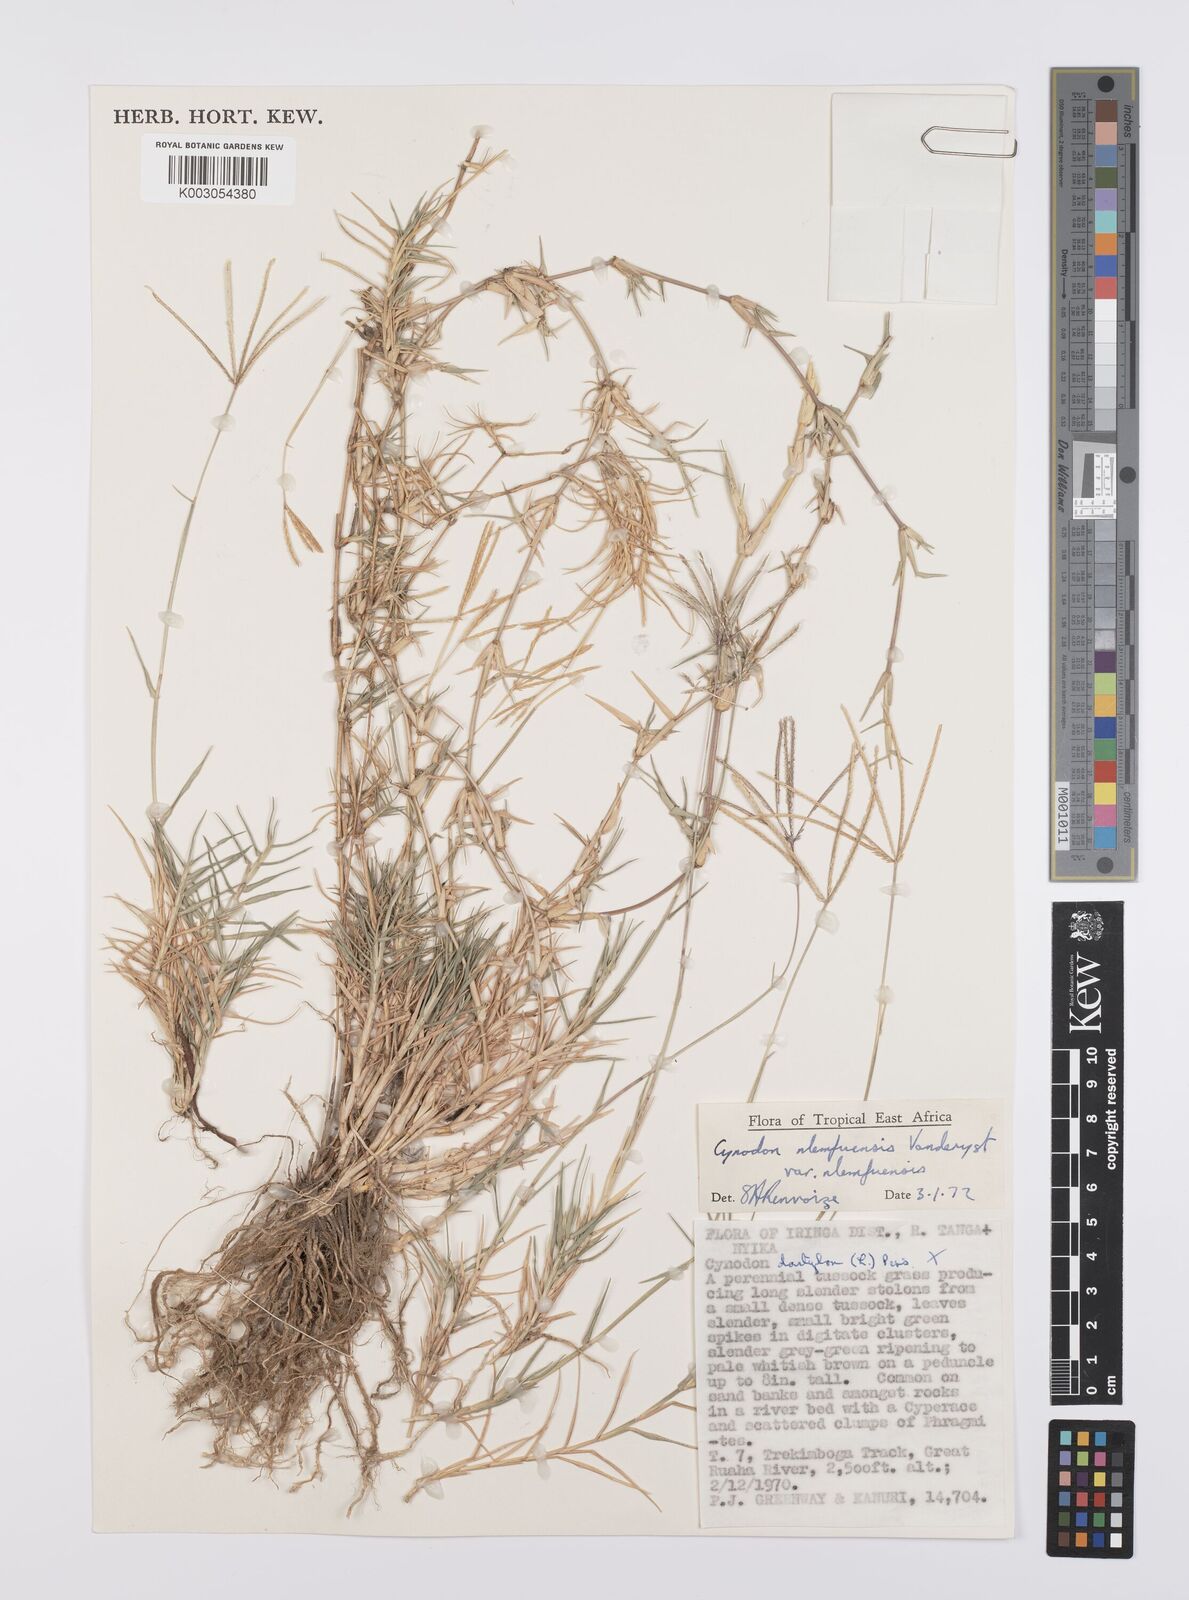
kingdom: Plantae
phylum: Tracheophyta
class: Liliopsida
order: Poales
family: Poaceae
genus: Cynodon
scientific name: Cynodon nlemfuensis
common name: African bermudagrass
